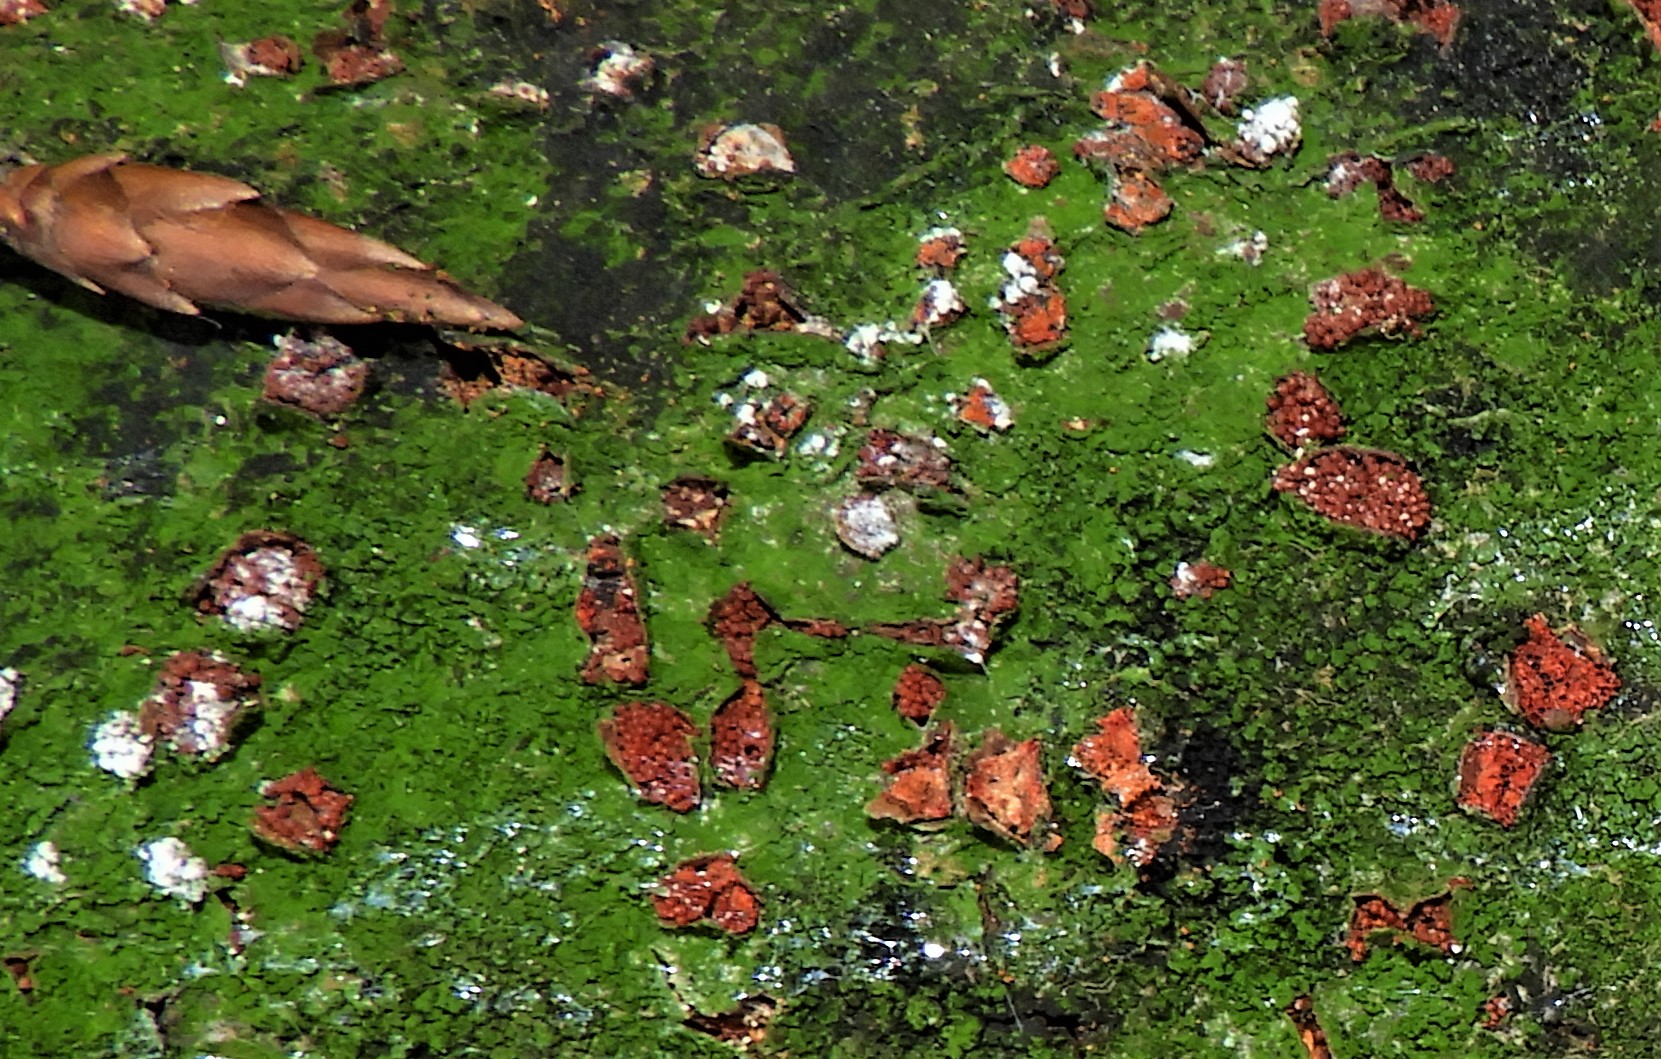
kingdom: Fungi
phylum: Ascomycota
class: Sordariomycetes
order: Hypocreales
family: Nectriaceae
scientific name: Nectriaceae
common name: cinnobersvampfamilien
